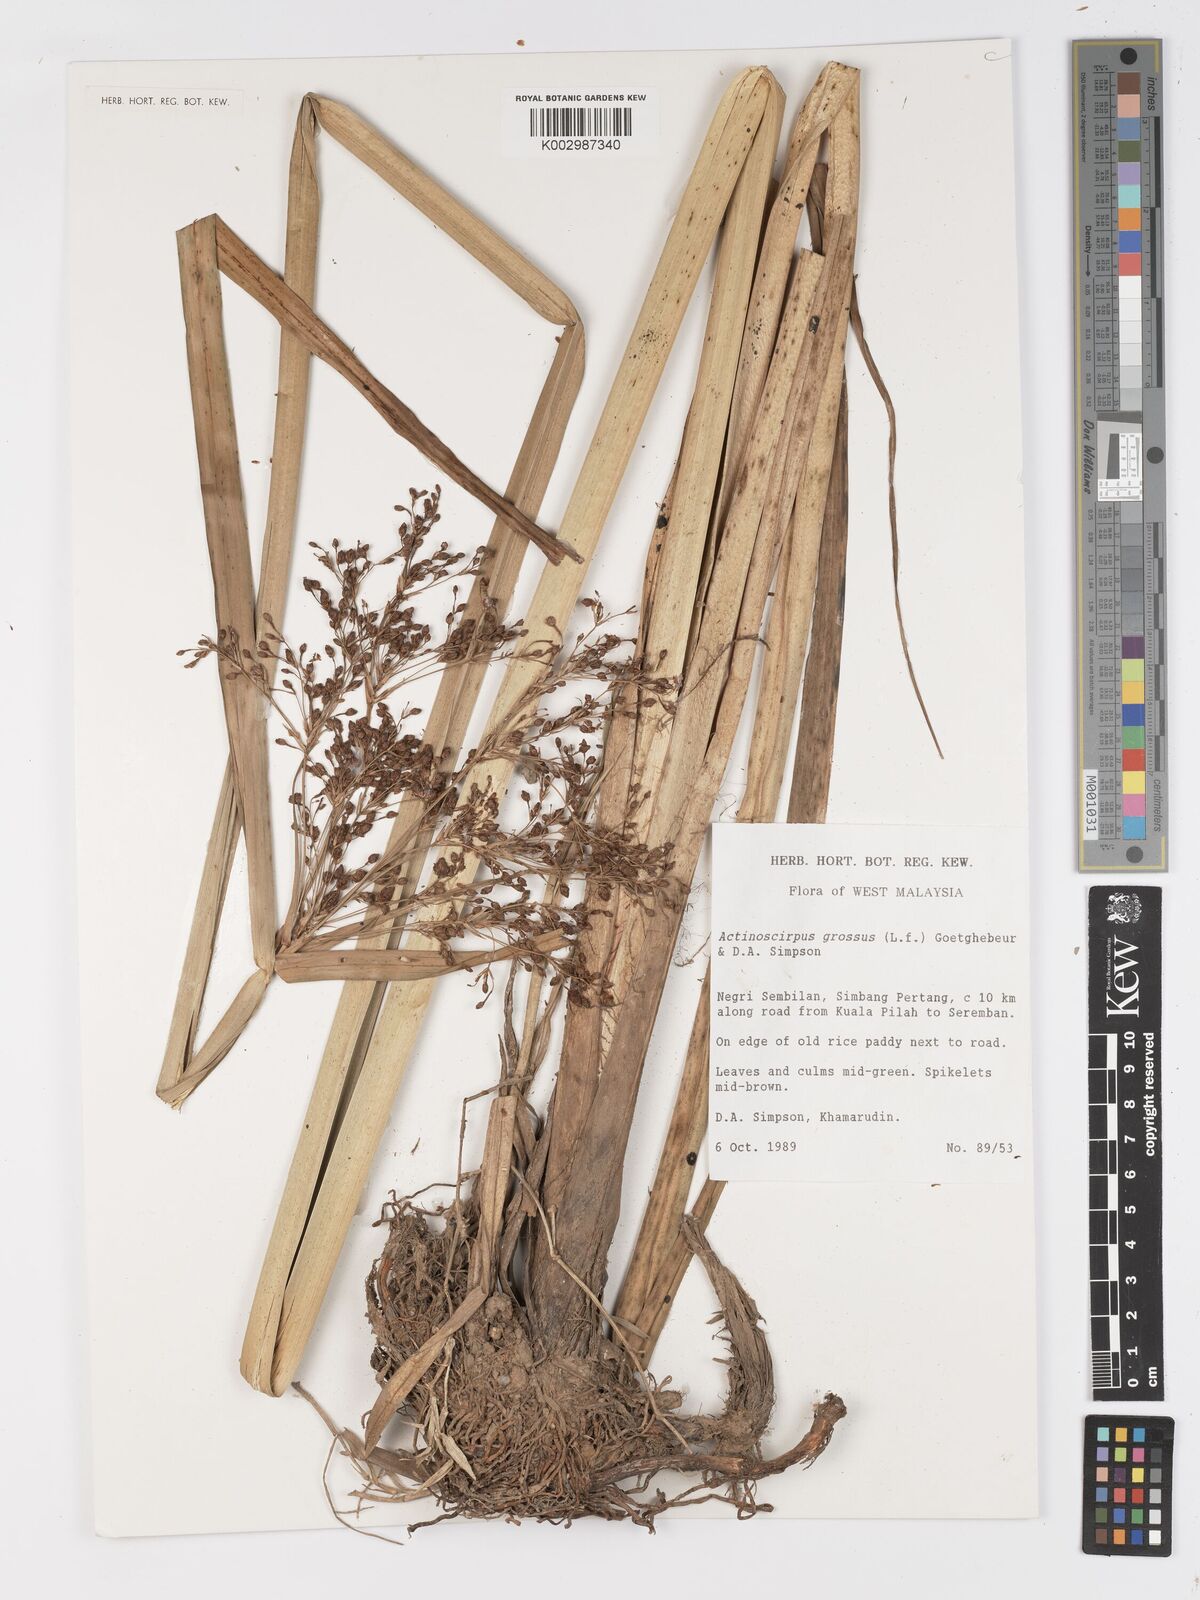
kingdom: Plantae
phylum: Tracheophyta
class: Liliopsida
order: Poales
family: Cyperaceae
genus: Actinoscirpus
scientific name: Actinoscirpus grossus
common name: Giant bur rush
